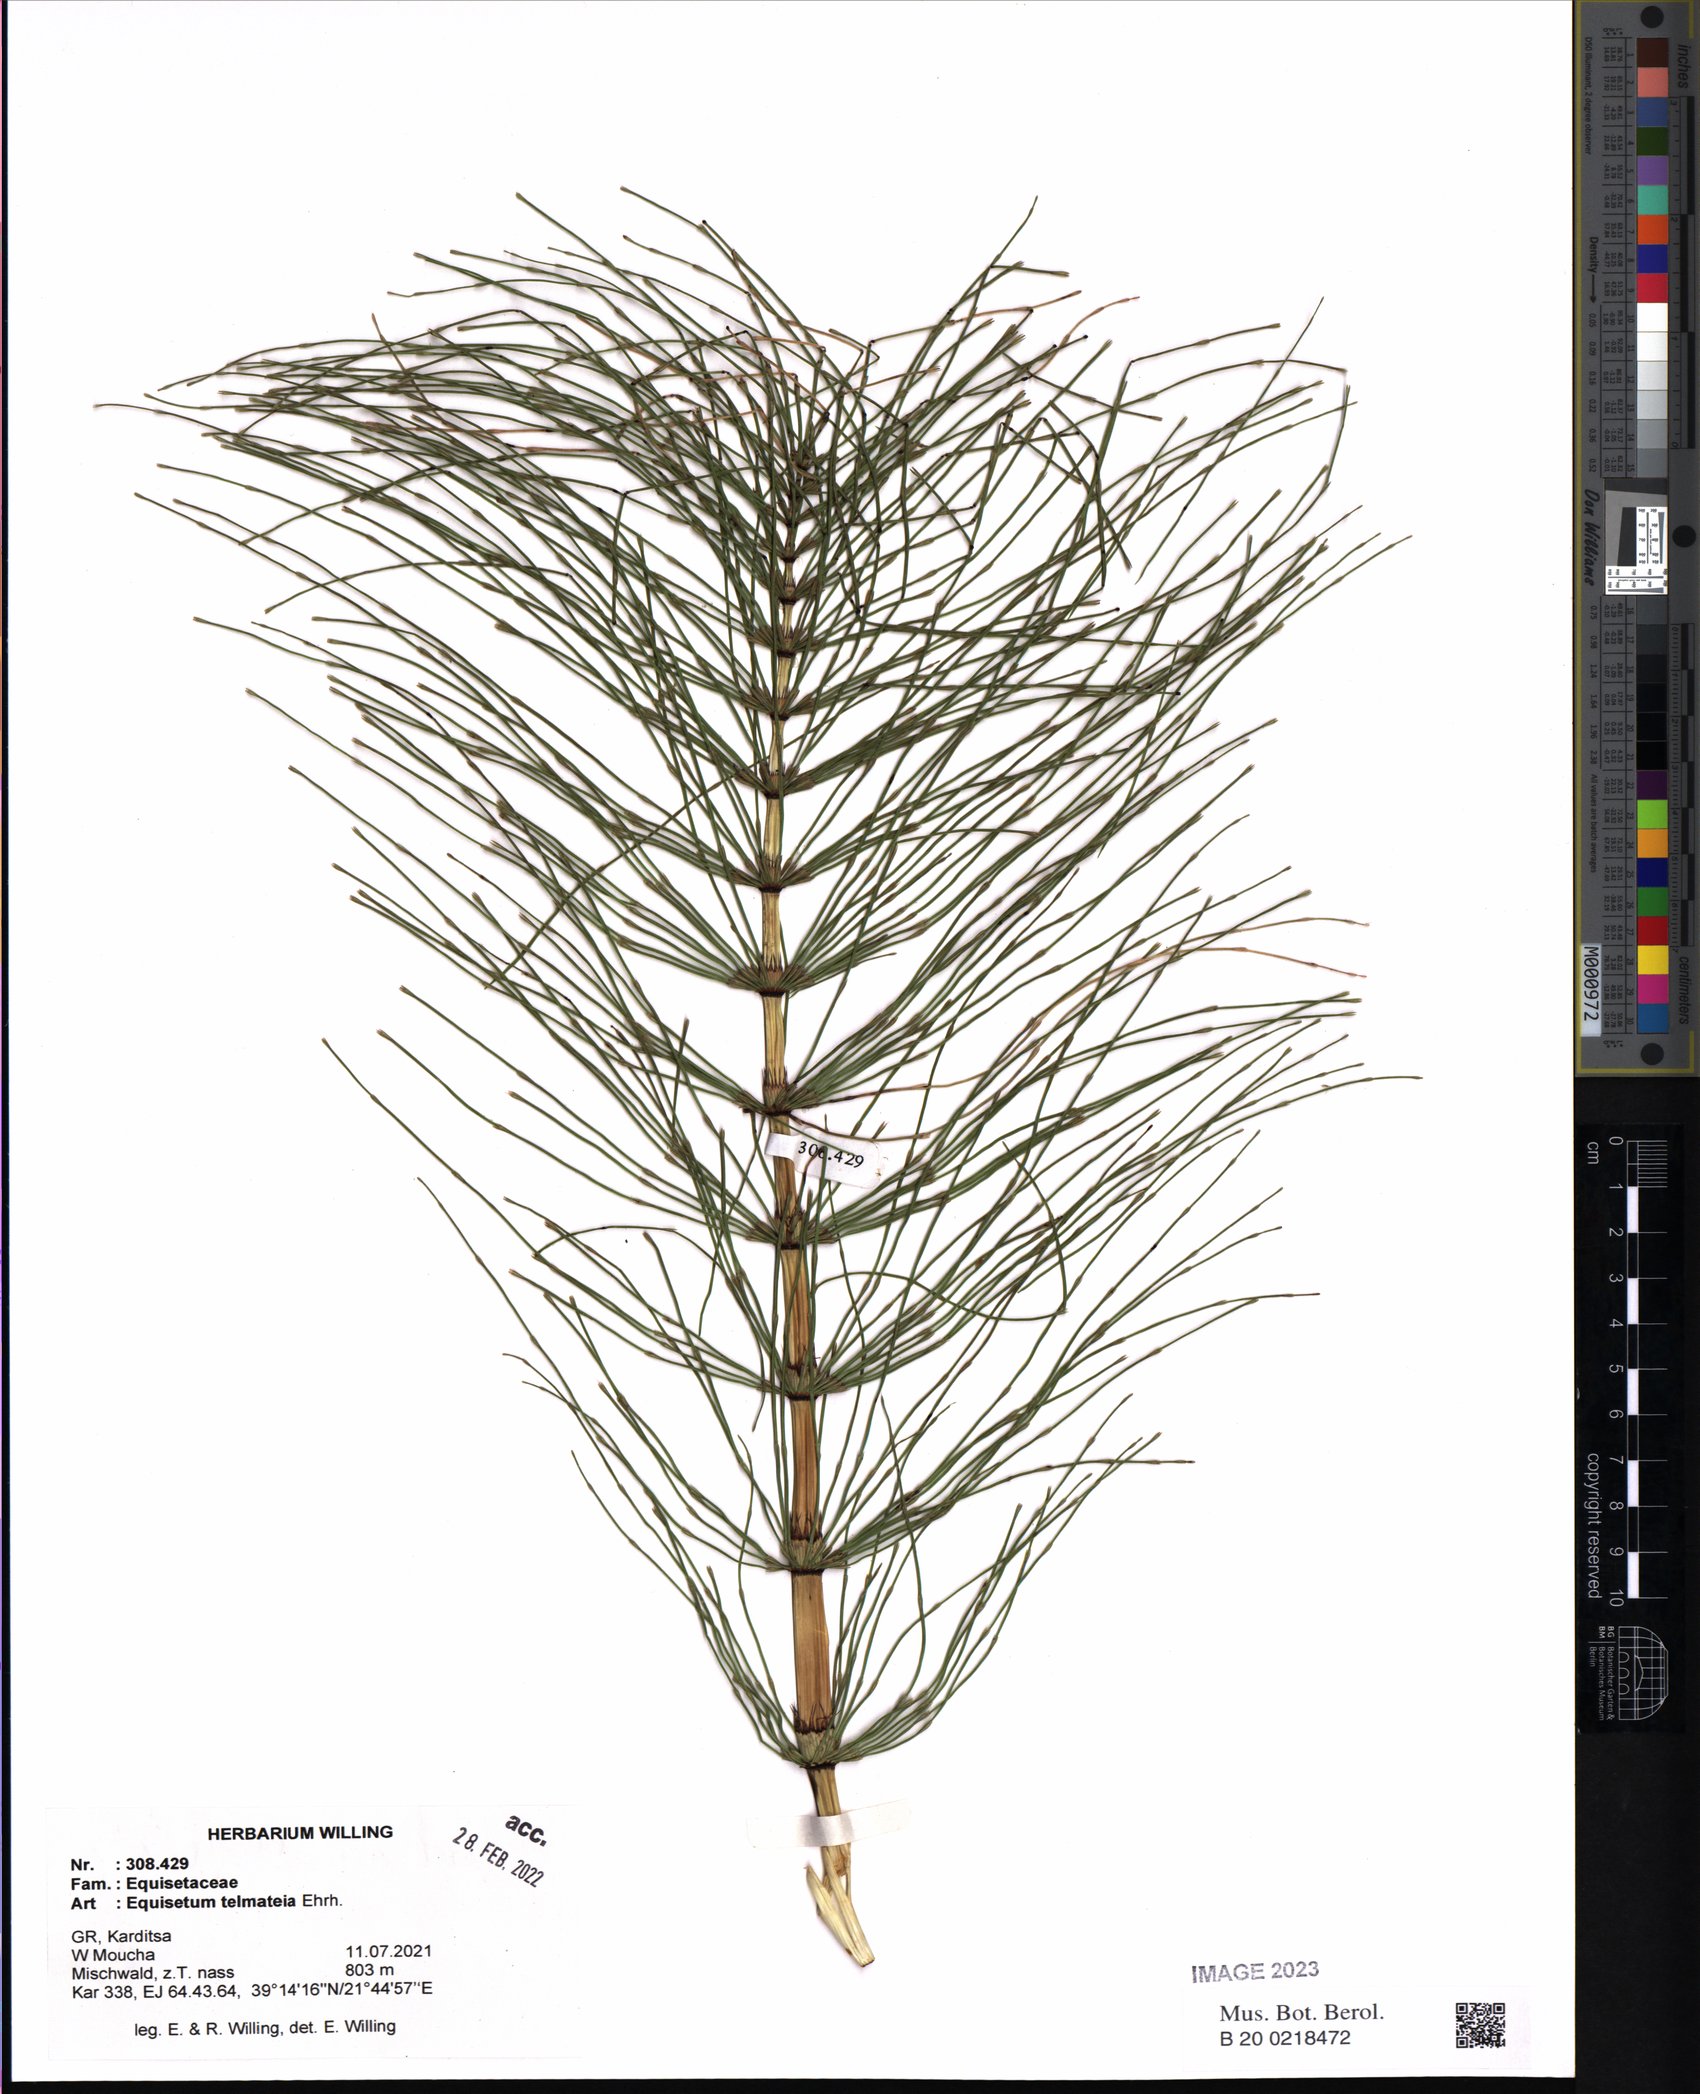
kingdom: Plantae
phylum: Tracheophyta
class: Polypodiopsida
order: Equisetales
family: Equisetaceae
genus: Equisetum
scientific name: Equisetum telmateia
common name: Great horsetail
